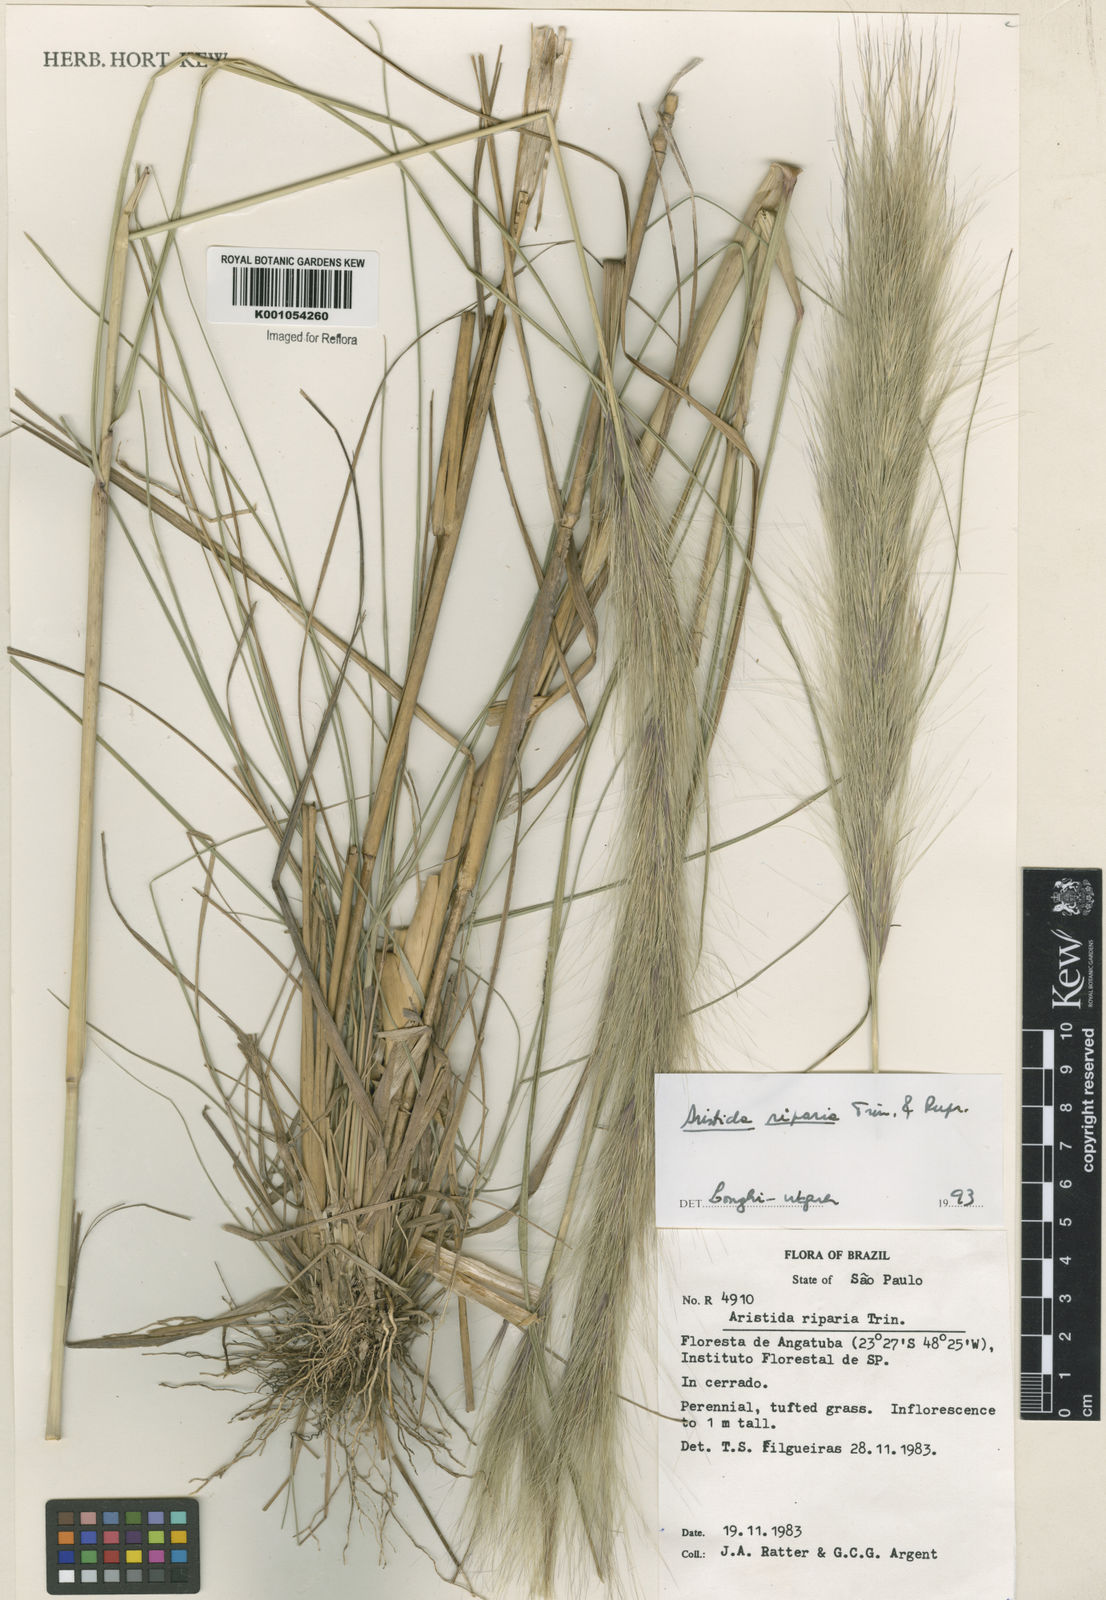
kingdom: Plantae
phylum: Tracheophyta
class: Liliopsida
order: Poales
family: Poaceae
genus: Aristida
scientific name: Aristida riparia
